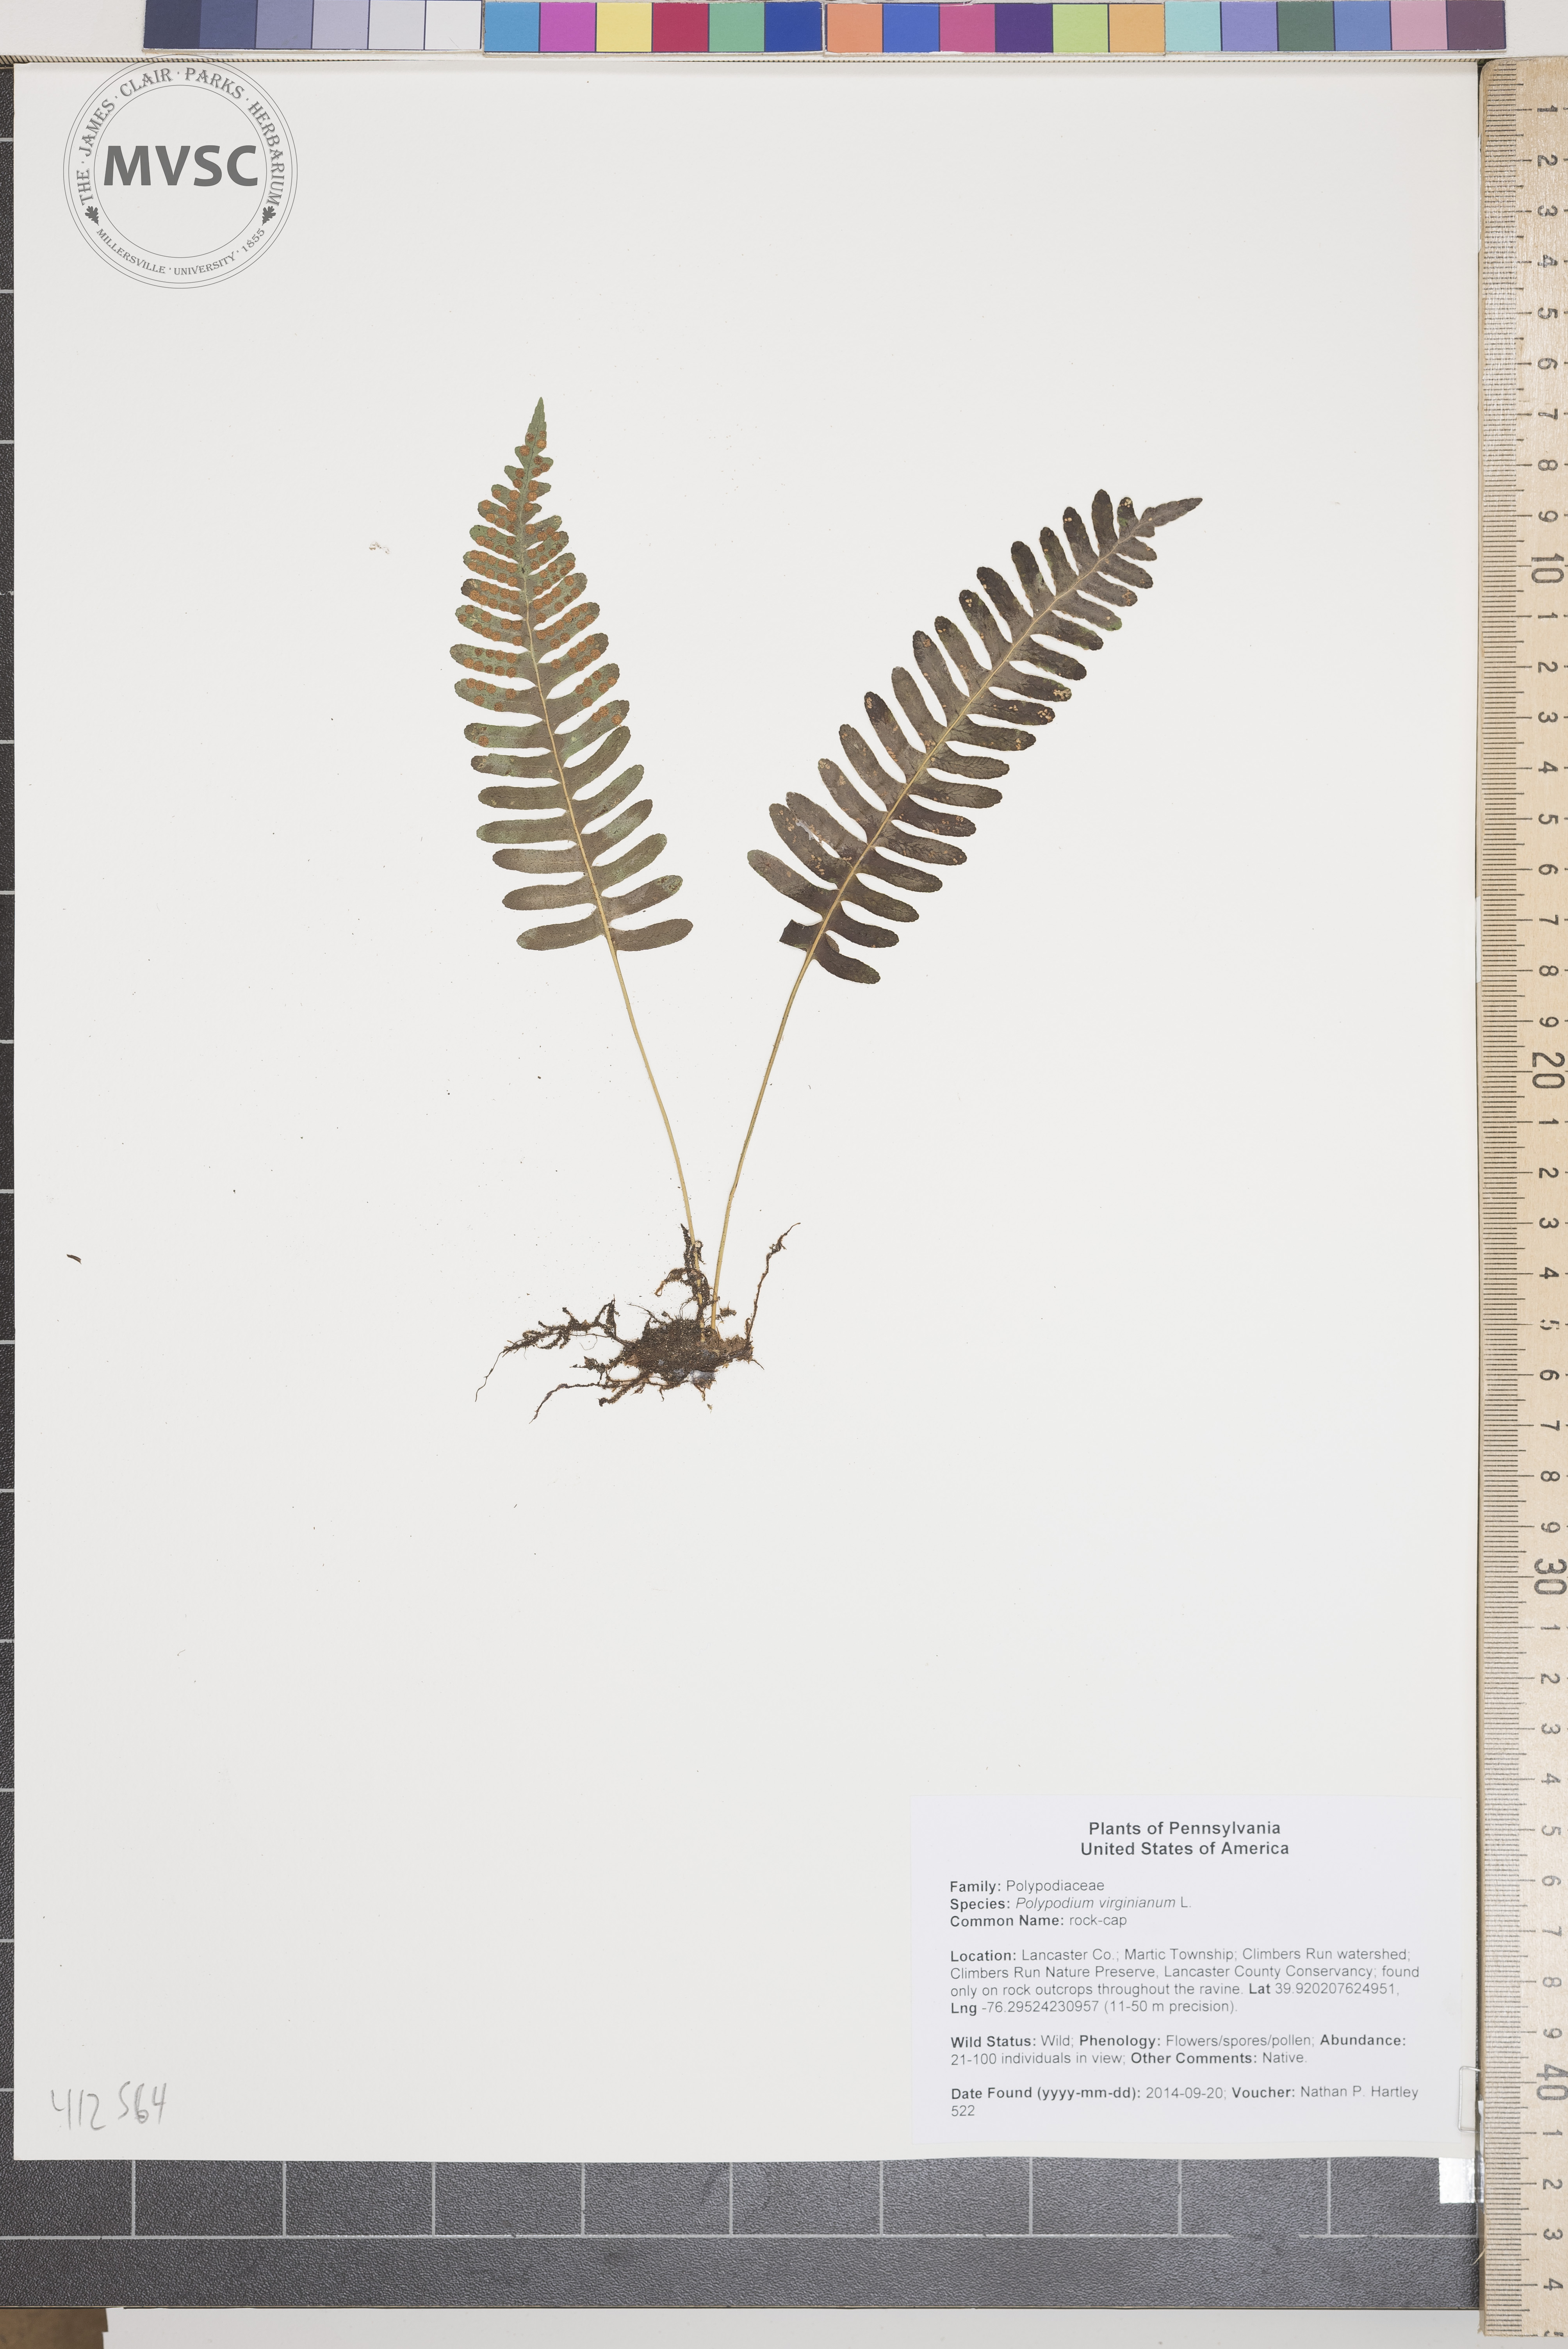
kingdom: Plantae
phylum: Tracheophyta
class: Polypodiopsida
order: Polypodiales
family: Polypodiaceae
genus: Polypodium
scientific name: Polypodium virginianum
